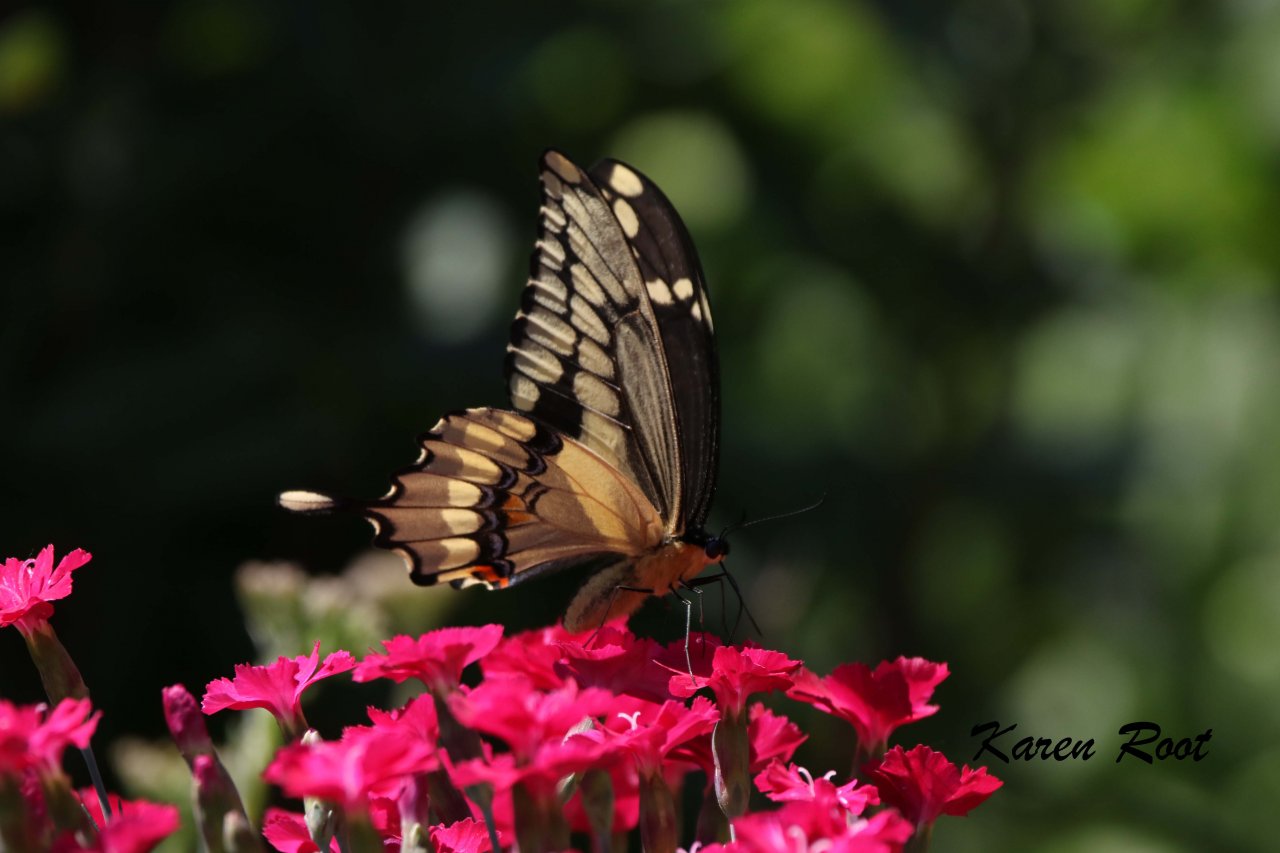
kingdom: Animalia
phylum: Arthropoda
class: Insecta
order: Lepidoptera
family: Papilionidae
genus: Papilio
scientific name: Papilio cresphontes
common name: Eastern Giant Swallowtail
